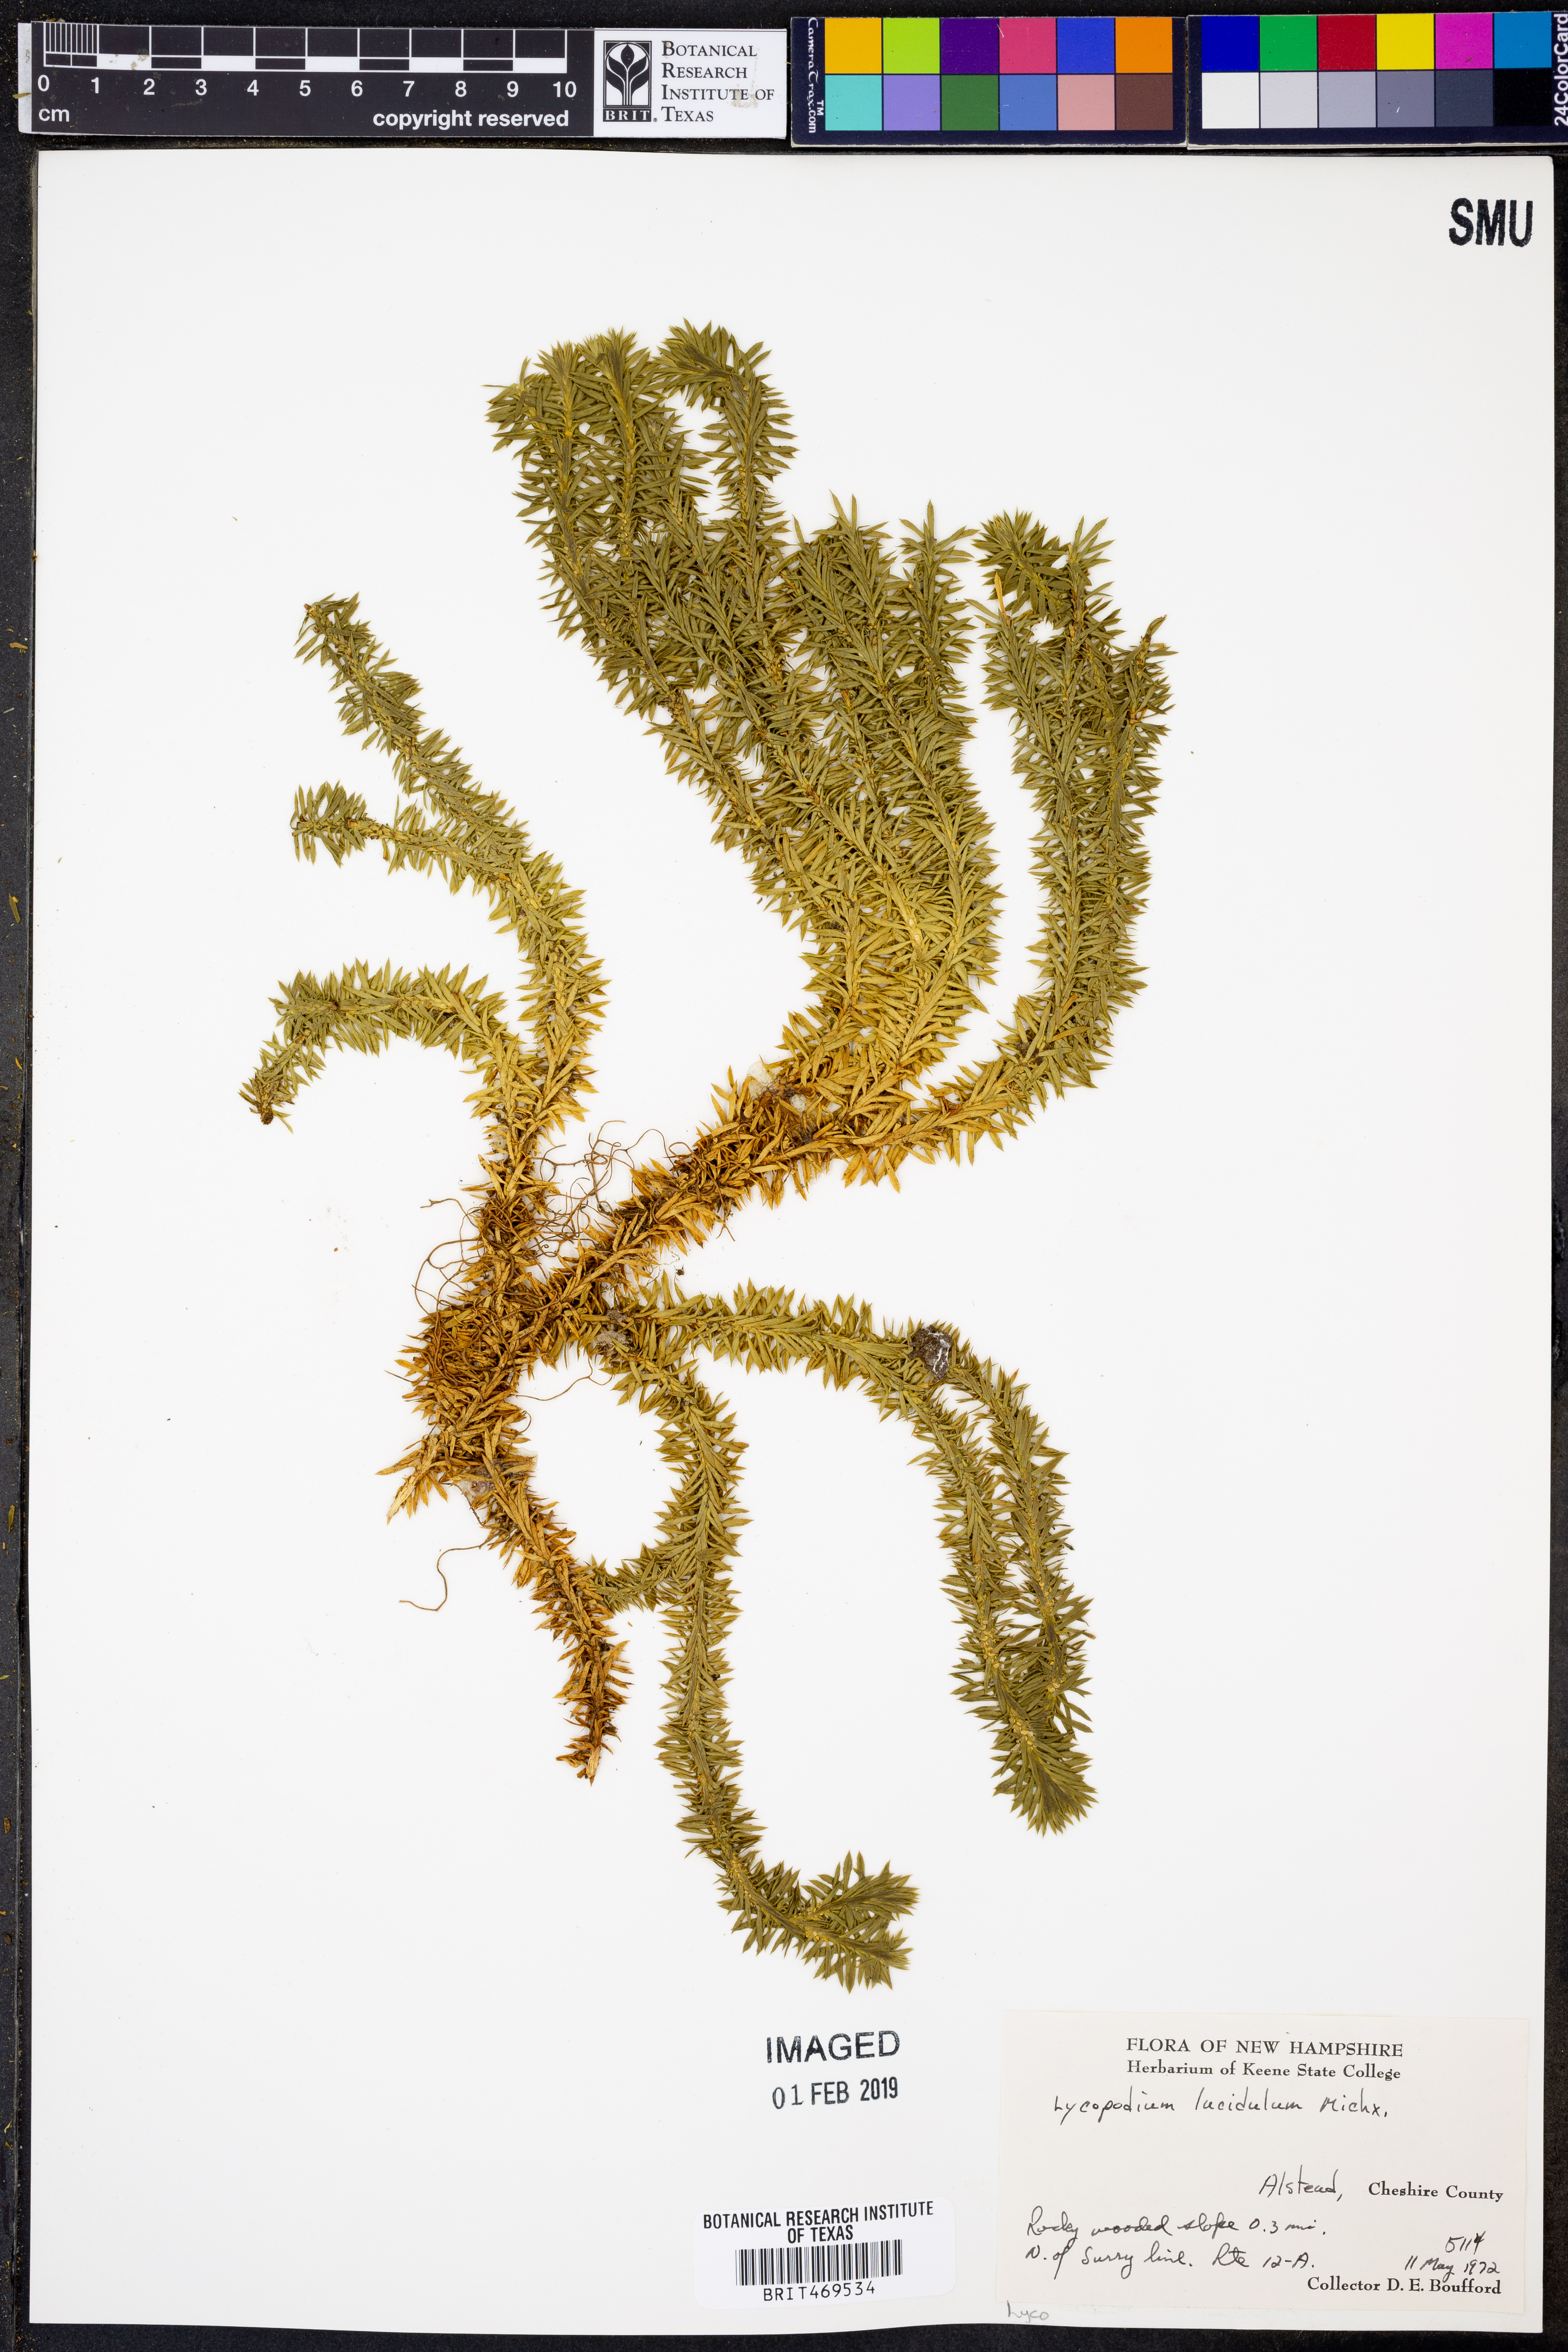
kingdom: Plantae
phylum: Tracheophyta
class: Lycopodiopsida
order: Lycopodiales
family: Lycopodiaceae
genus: Huperzia
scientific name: Huperzia lucidula
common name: Shining clubmoss
